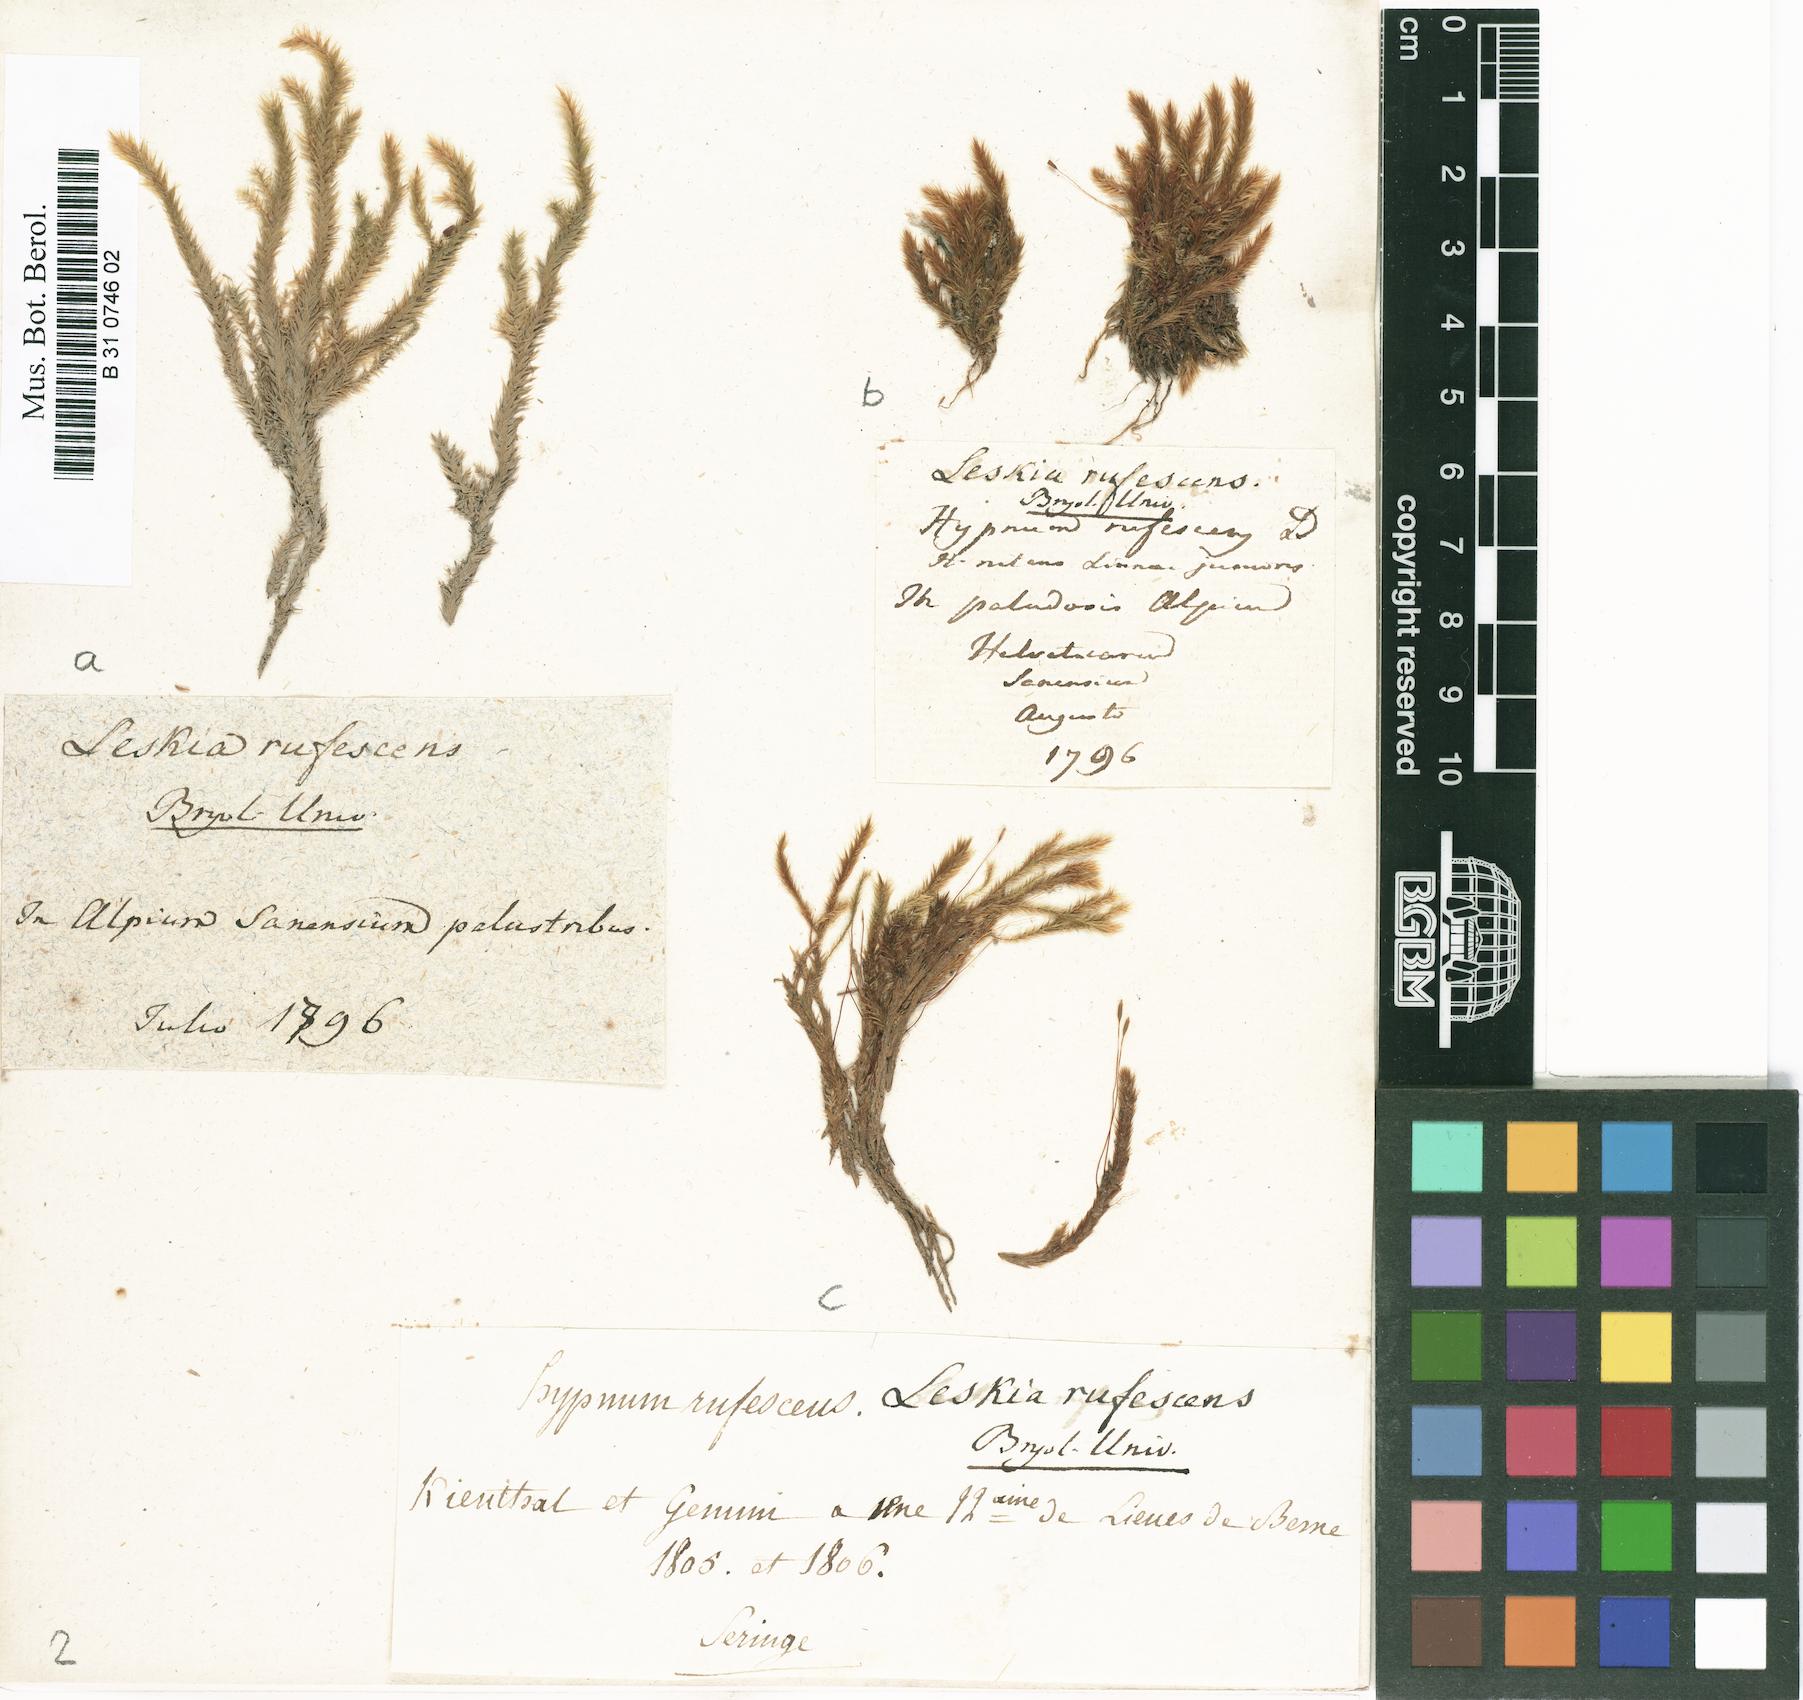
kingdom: Plantae
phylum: Bryophyta
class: Bryopsida
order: Hypnales
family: Plagiotheciaceae
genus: Orthothecium
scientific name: Orthothecium rufescens
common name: Red leskea
